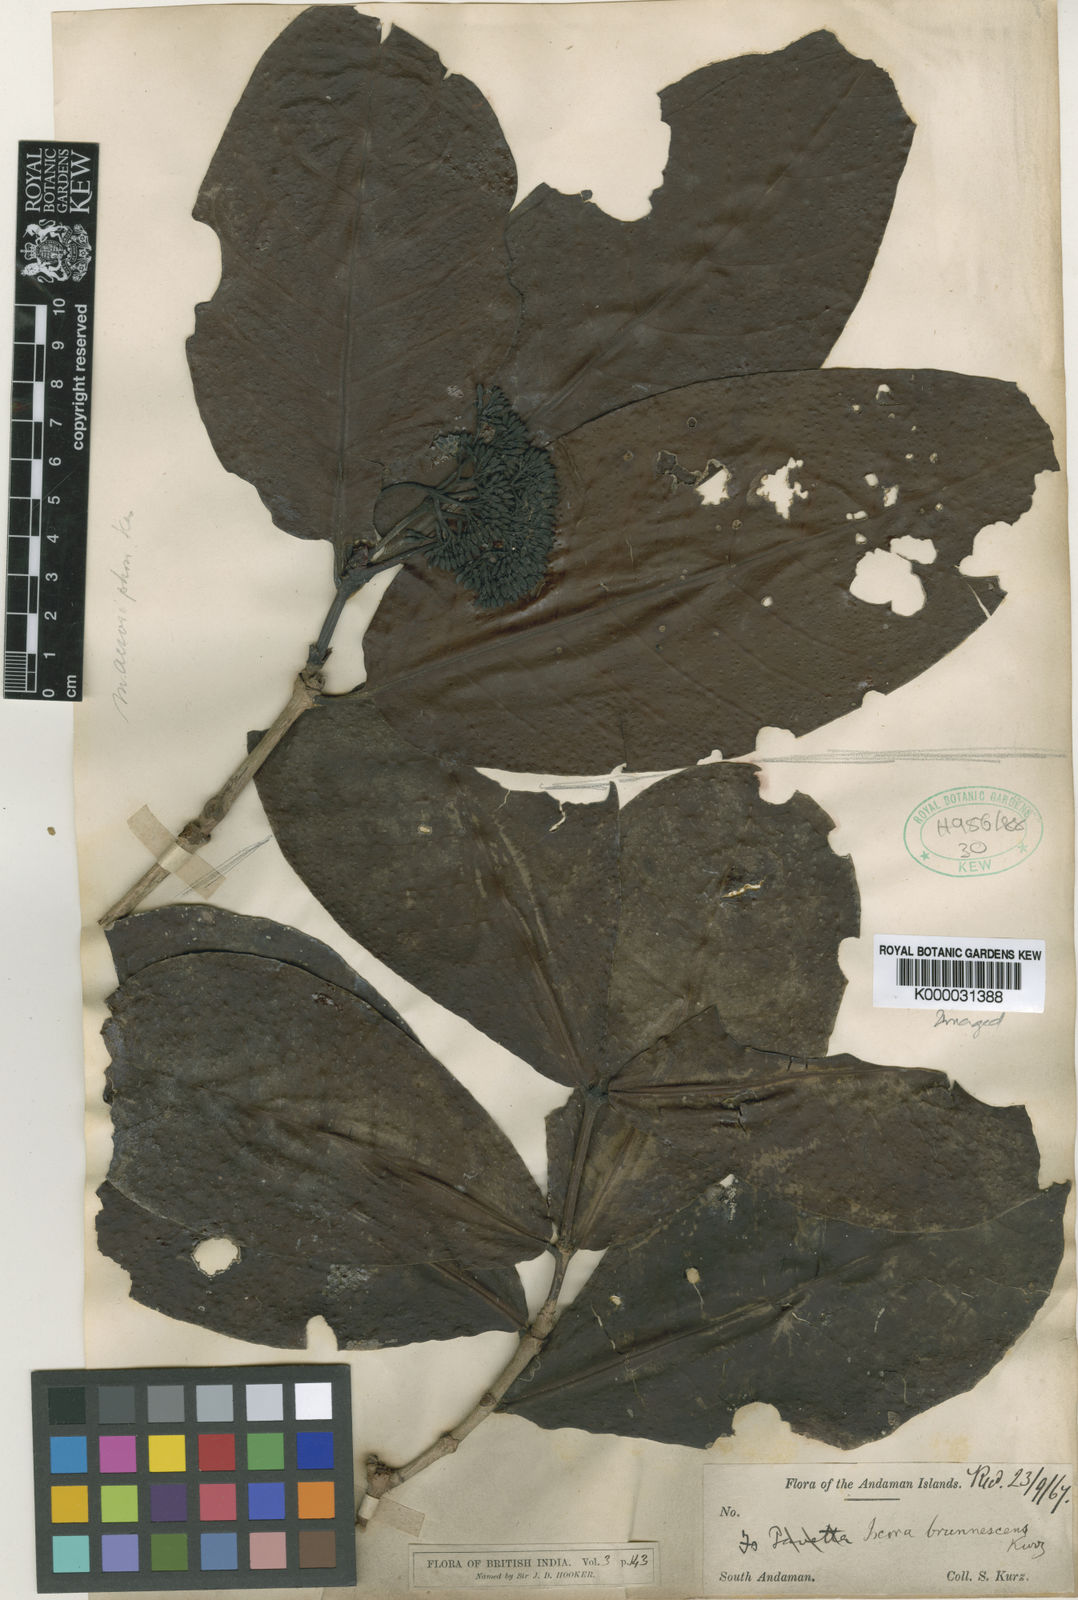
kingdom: Plantae
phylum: Tracheophyta
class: Magnoliopsida
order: Gentianales
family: Rubiaceae
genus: Ixora
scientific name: Ixora brunnescens
